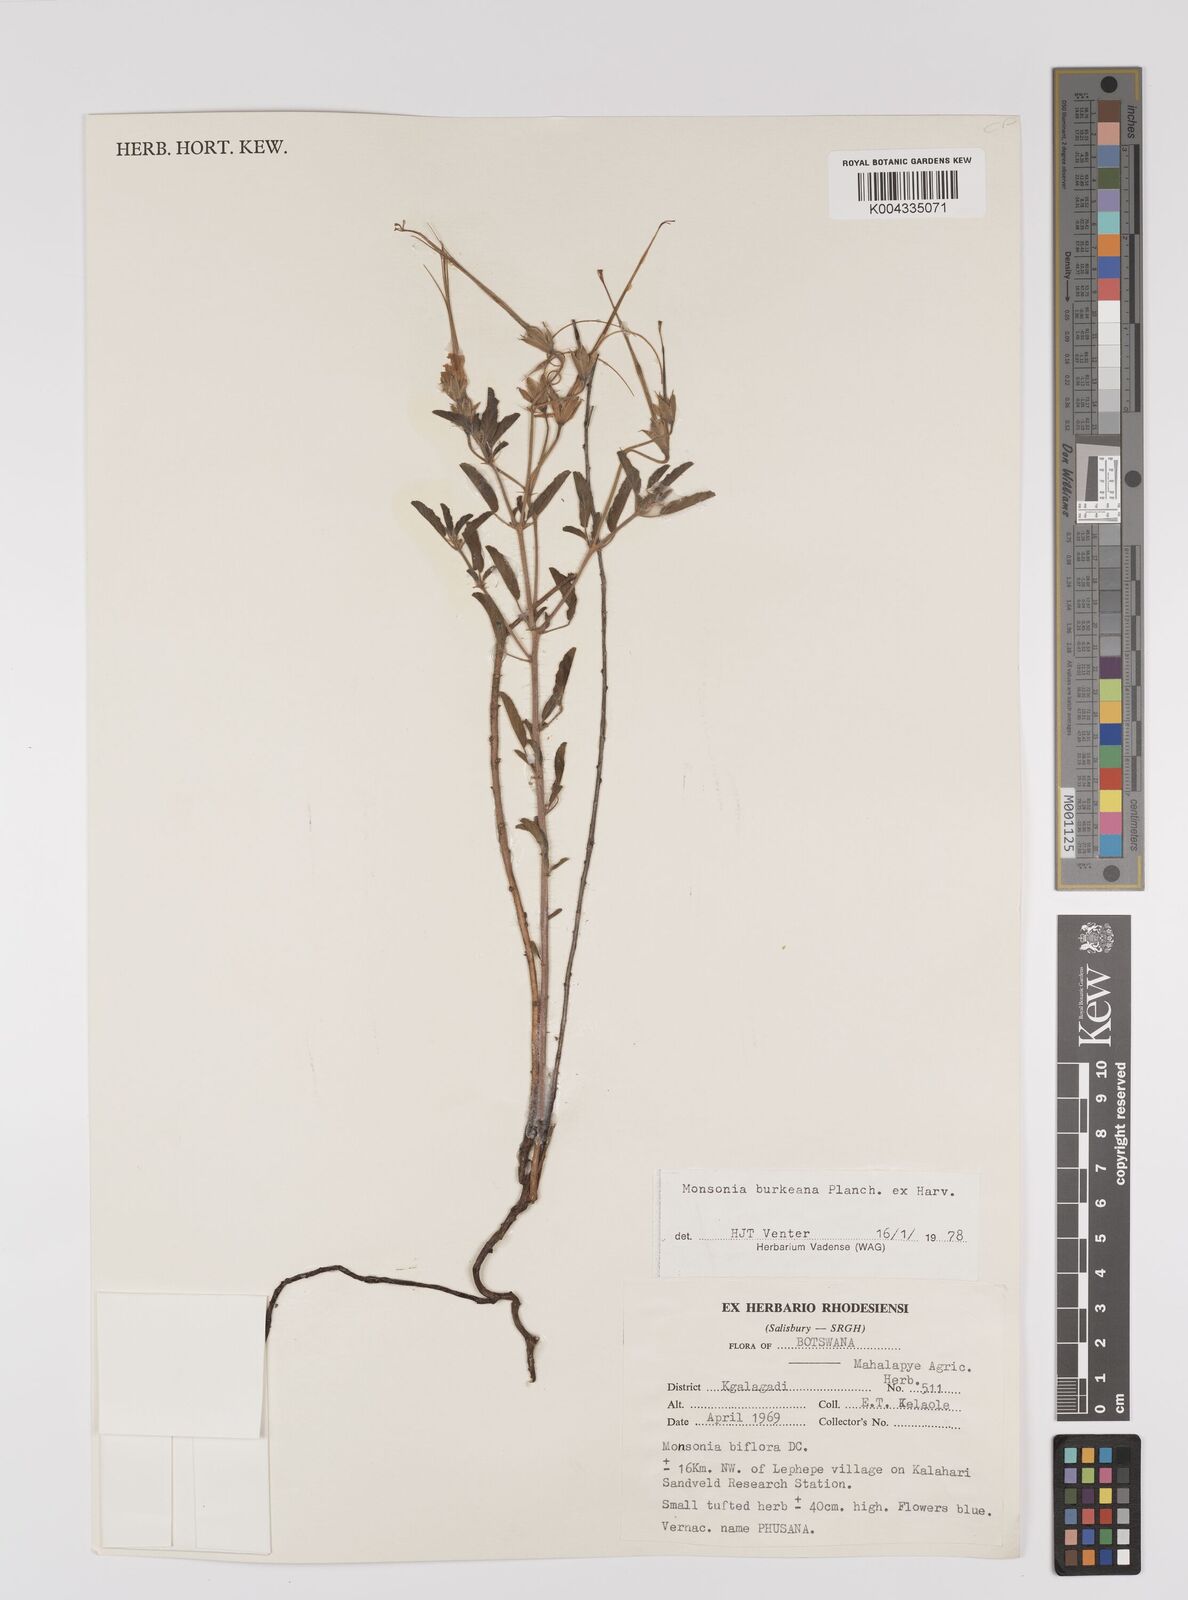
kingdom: Plantae
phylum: Tracheophyta
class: Magnoliopsida
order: Geraniales
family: Geraniaceae
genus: Monsonia
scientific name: Monsonia biflora
